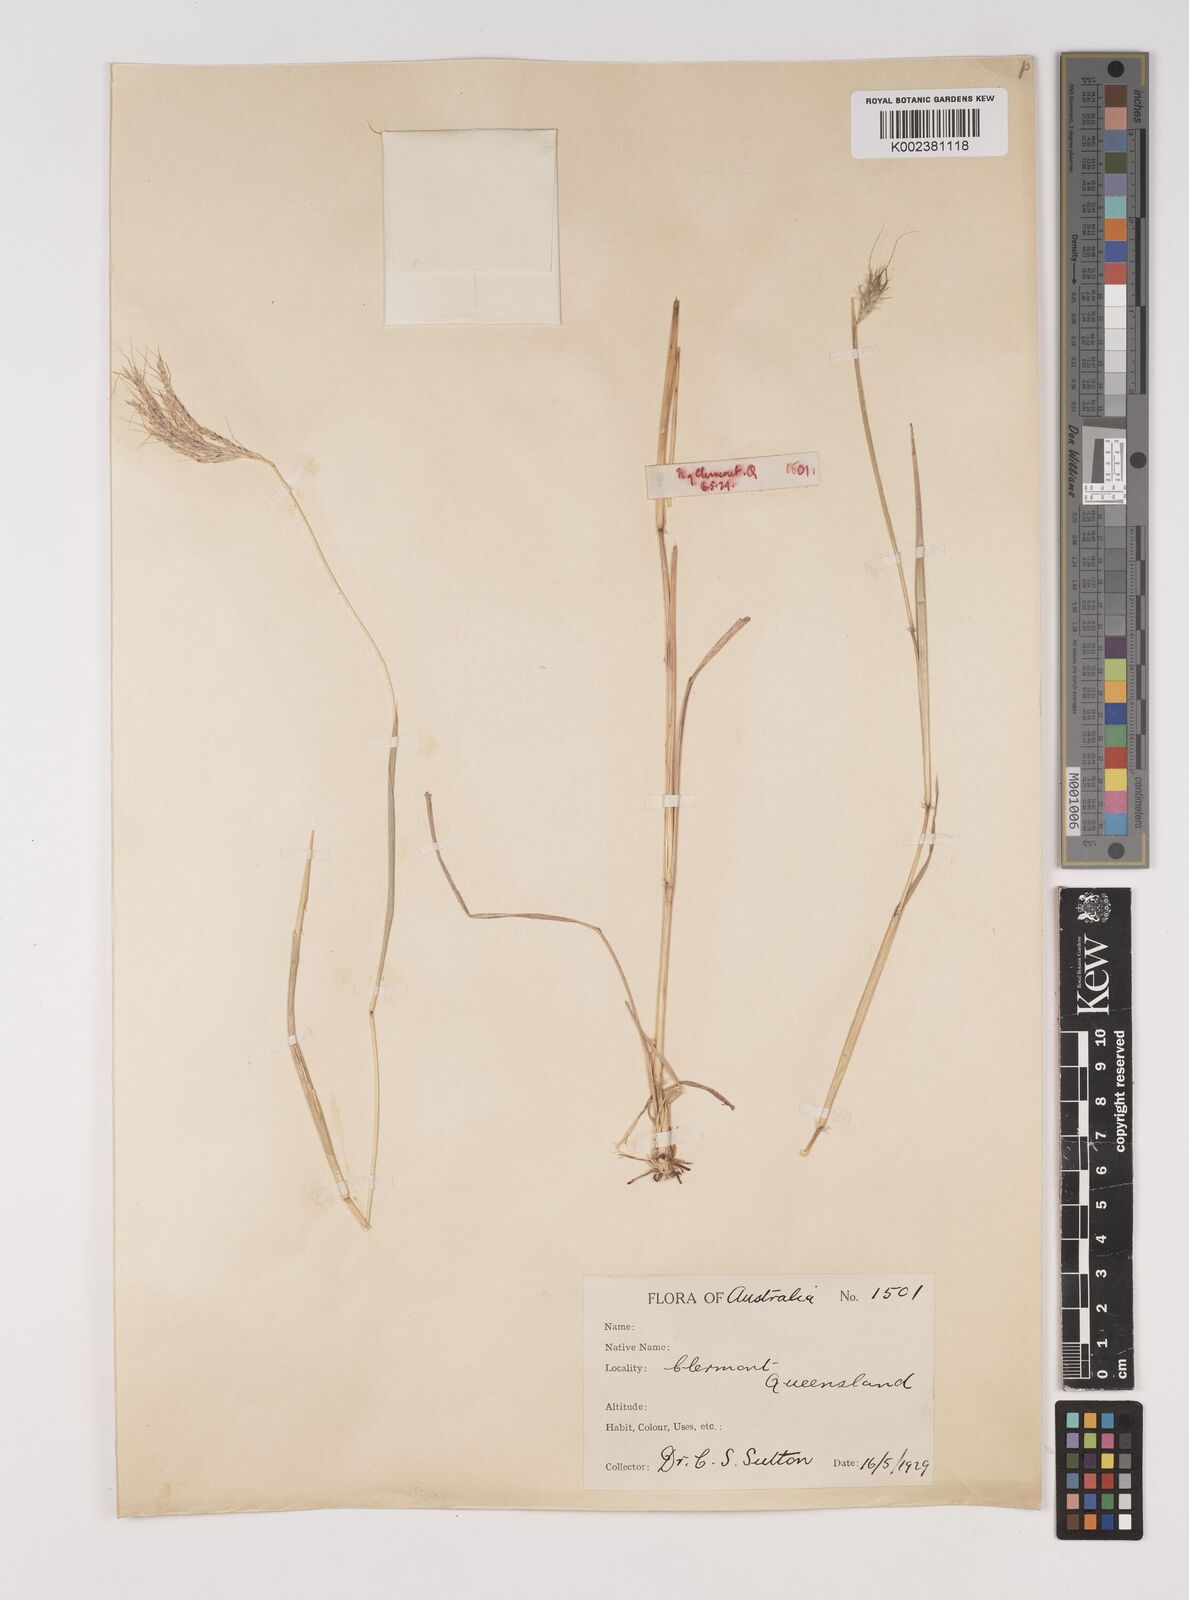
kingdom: Plantae
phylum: Tracheophyta
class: Liliopsida
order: Poales
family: Poaceae
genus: Bothriochloa
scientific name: Bothriochloa ewartiana
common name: Desert-bluegrass
